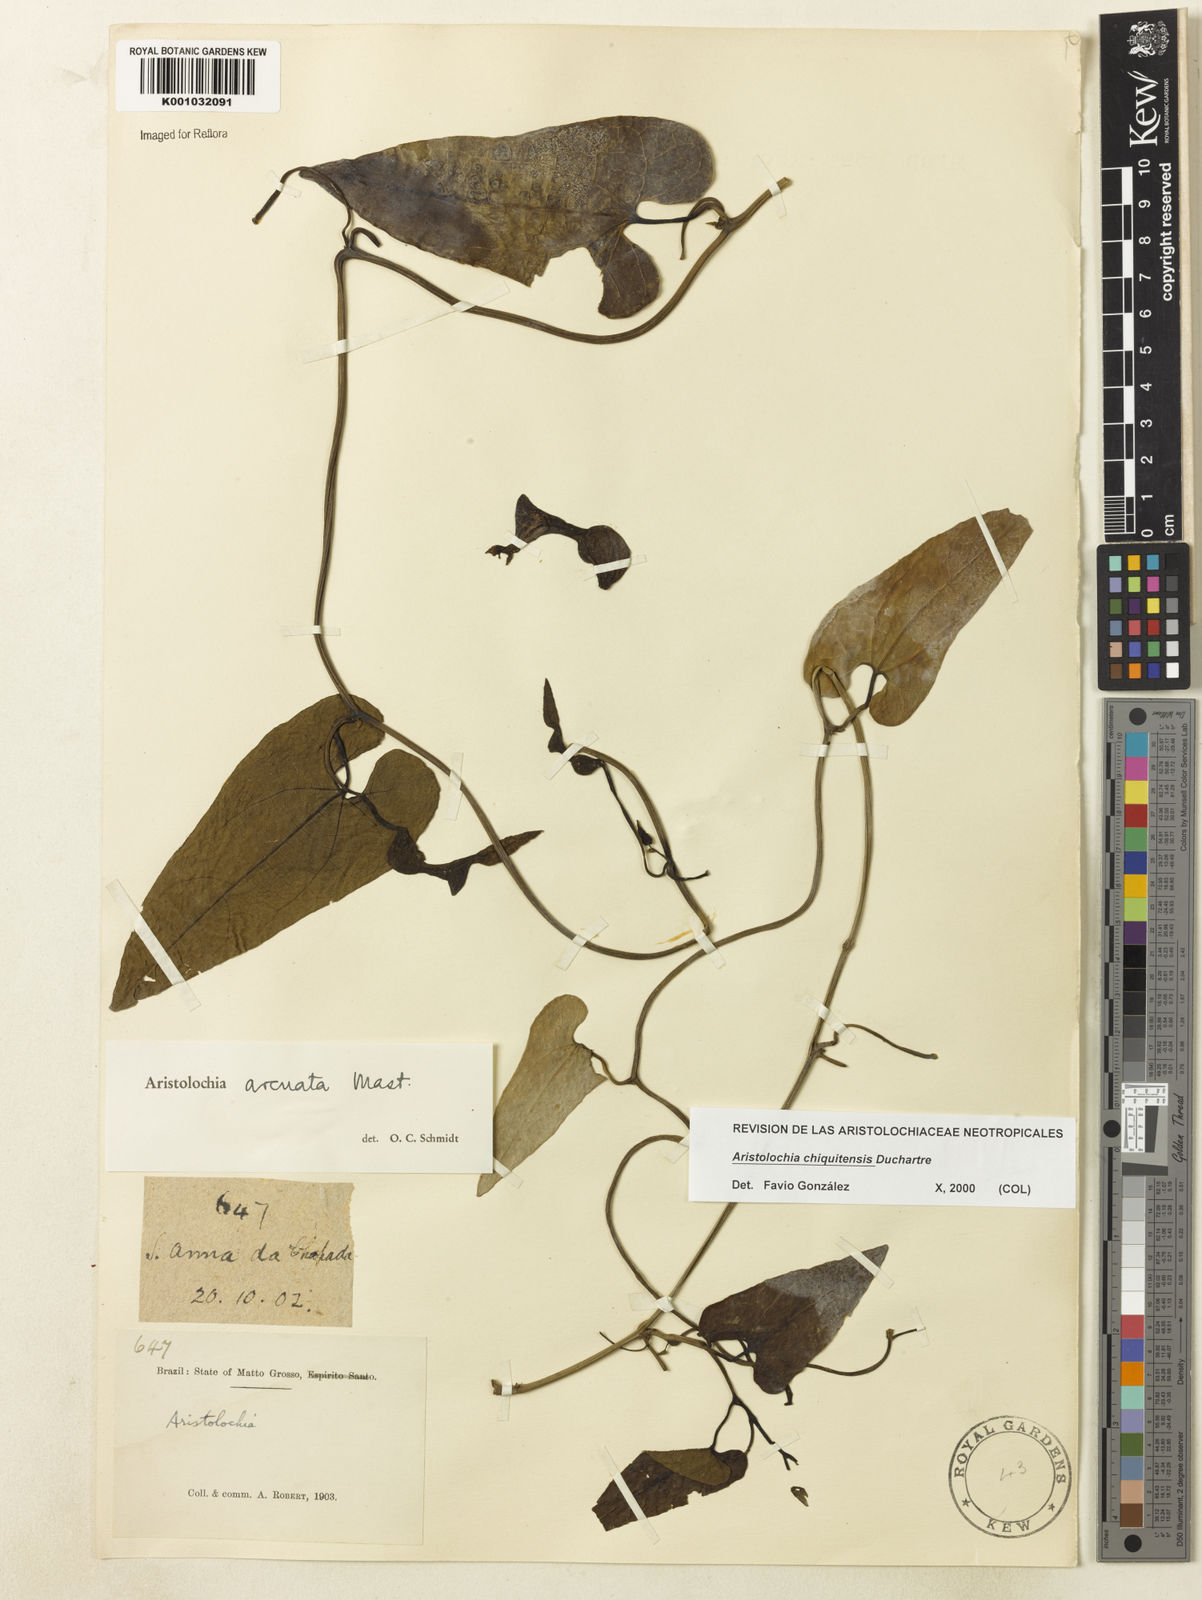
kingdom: Plantae
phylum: Tracheophyta
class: Magnoliopsida
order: Piperales
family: Aristolochiaceae
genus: Aristolochia
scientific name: Aristolochia chiquitensis
